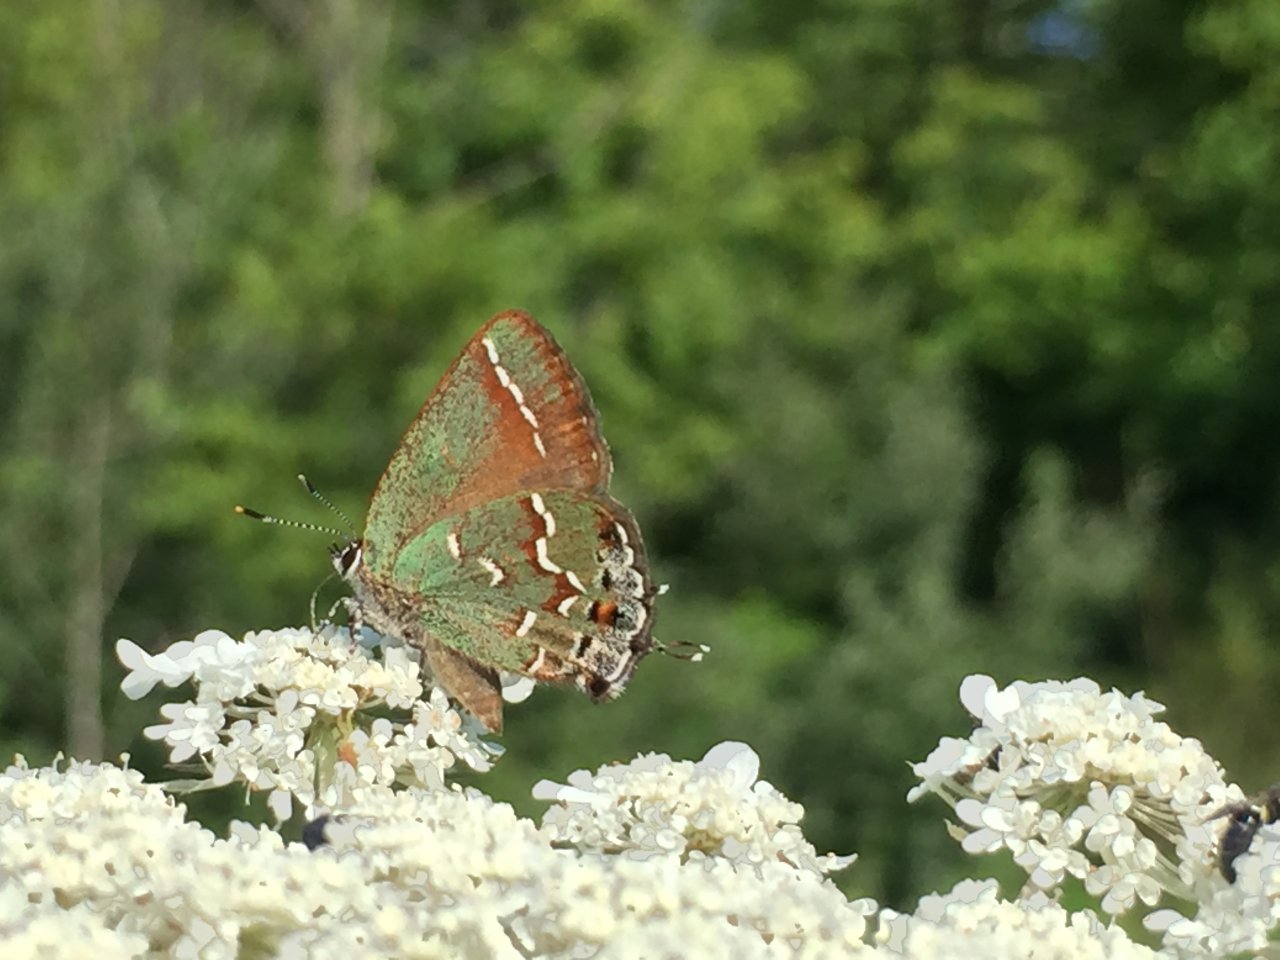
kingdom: Animalia
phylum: Arthropoda
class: Insecta
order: Lepidoptera
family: Lycaenidae
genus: Mitoura
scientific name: Mitoura gryneus
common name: Juniper Hairstreak
